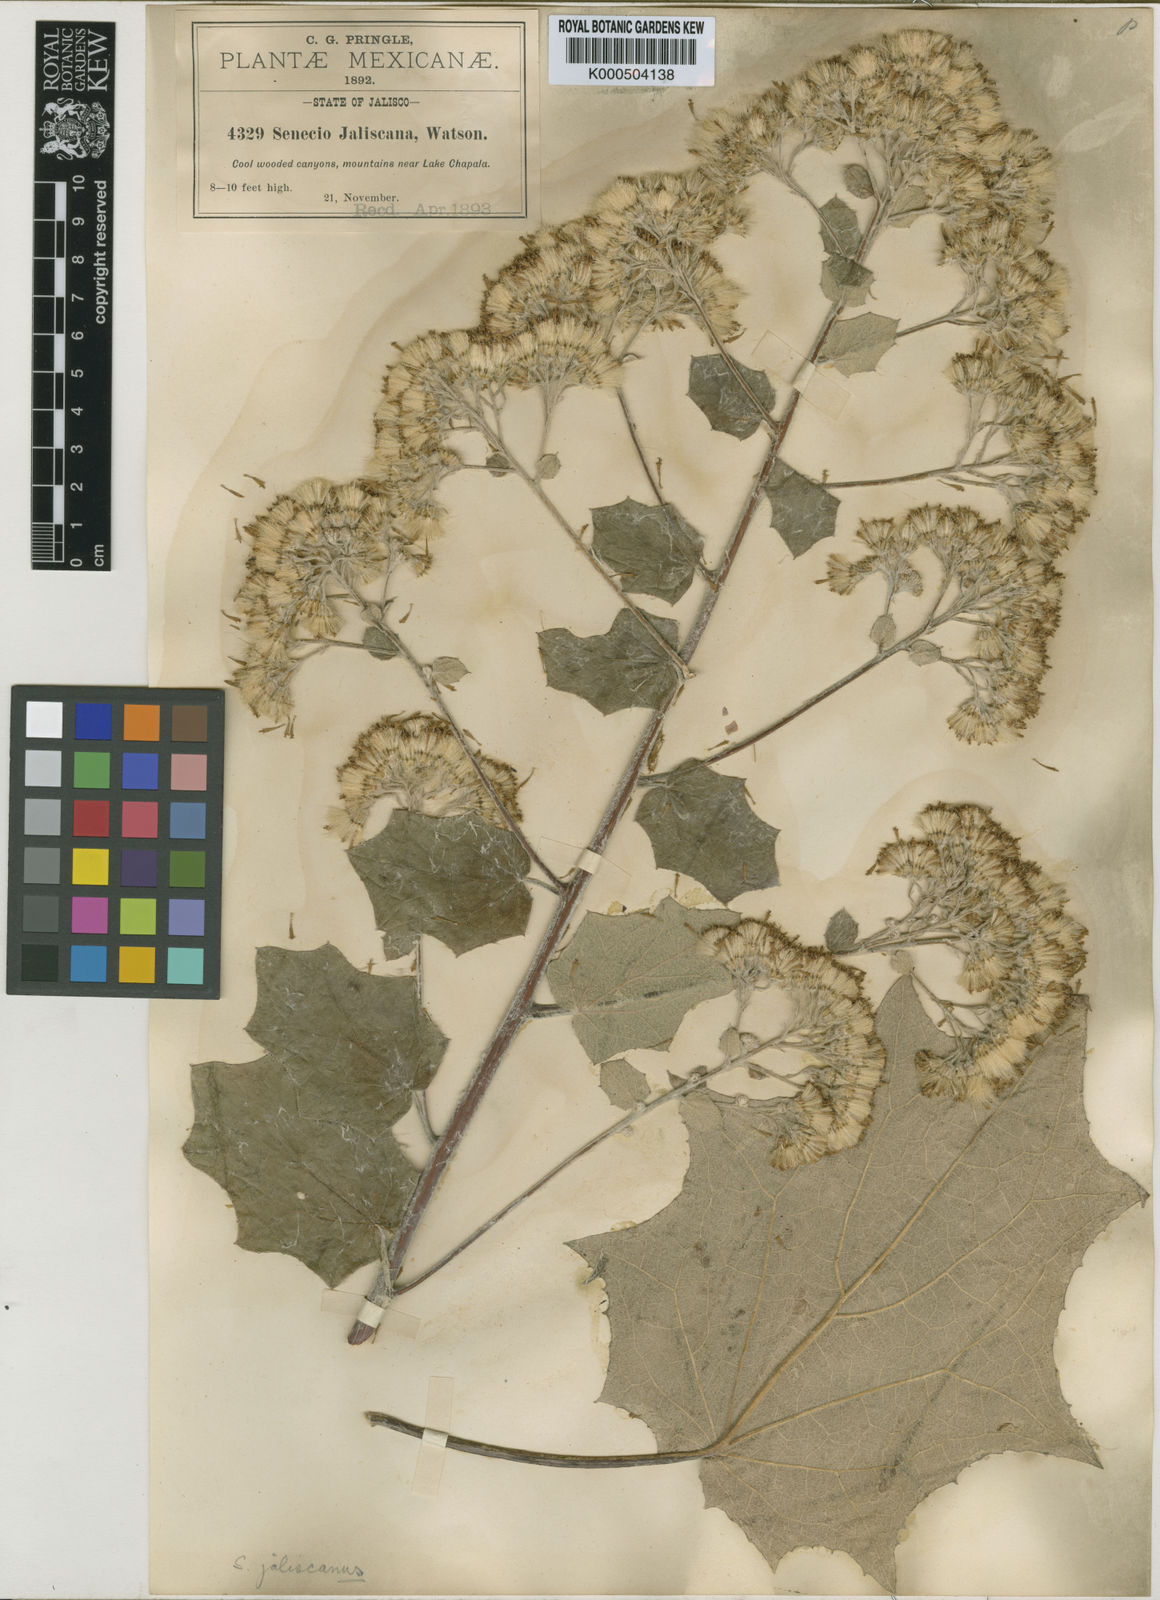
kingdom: Plantae
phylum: Tracheophyta
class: Magnoliopsida
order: Asterales
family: Asteraceae
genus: Roldana
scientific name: Roldana lobata
